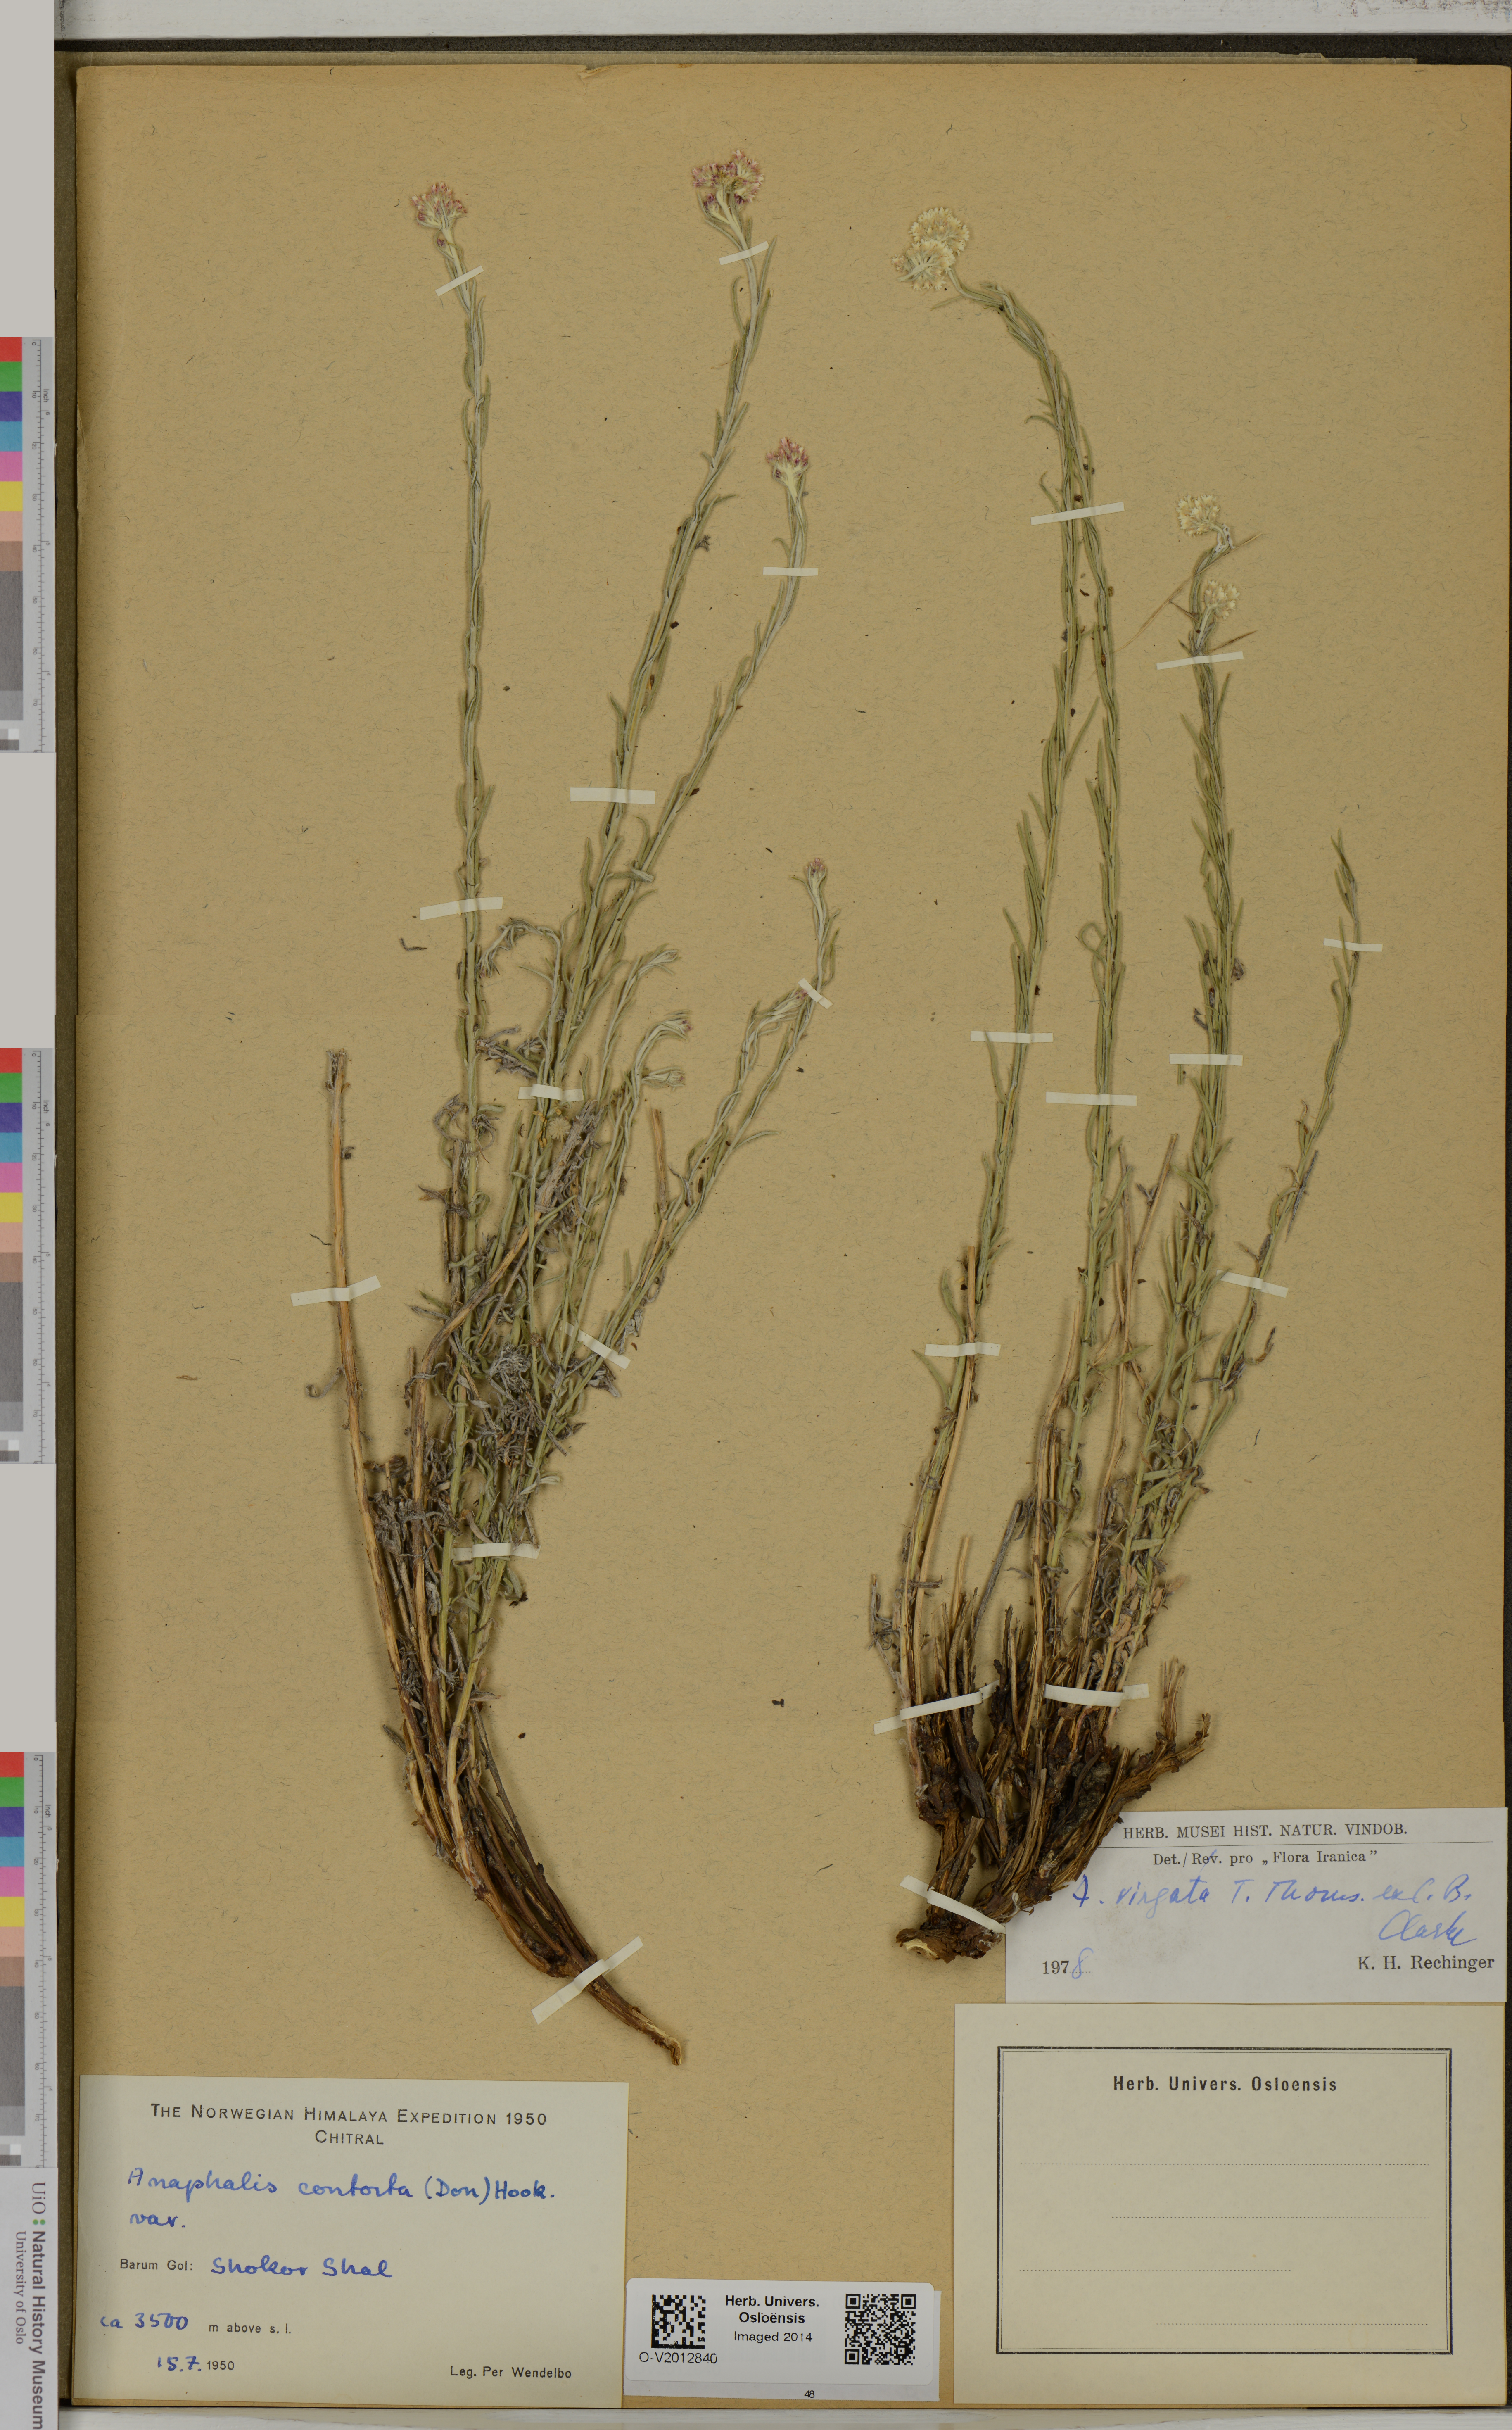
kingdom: Plantae
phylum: Tracheophyta
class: Magnoliopsida
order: Asterales
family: Asteraceae
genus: Anaphalis
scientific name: Anaphalis virgata
